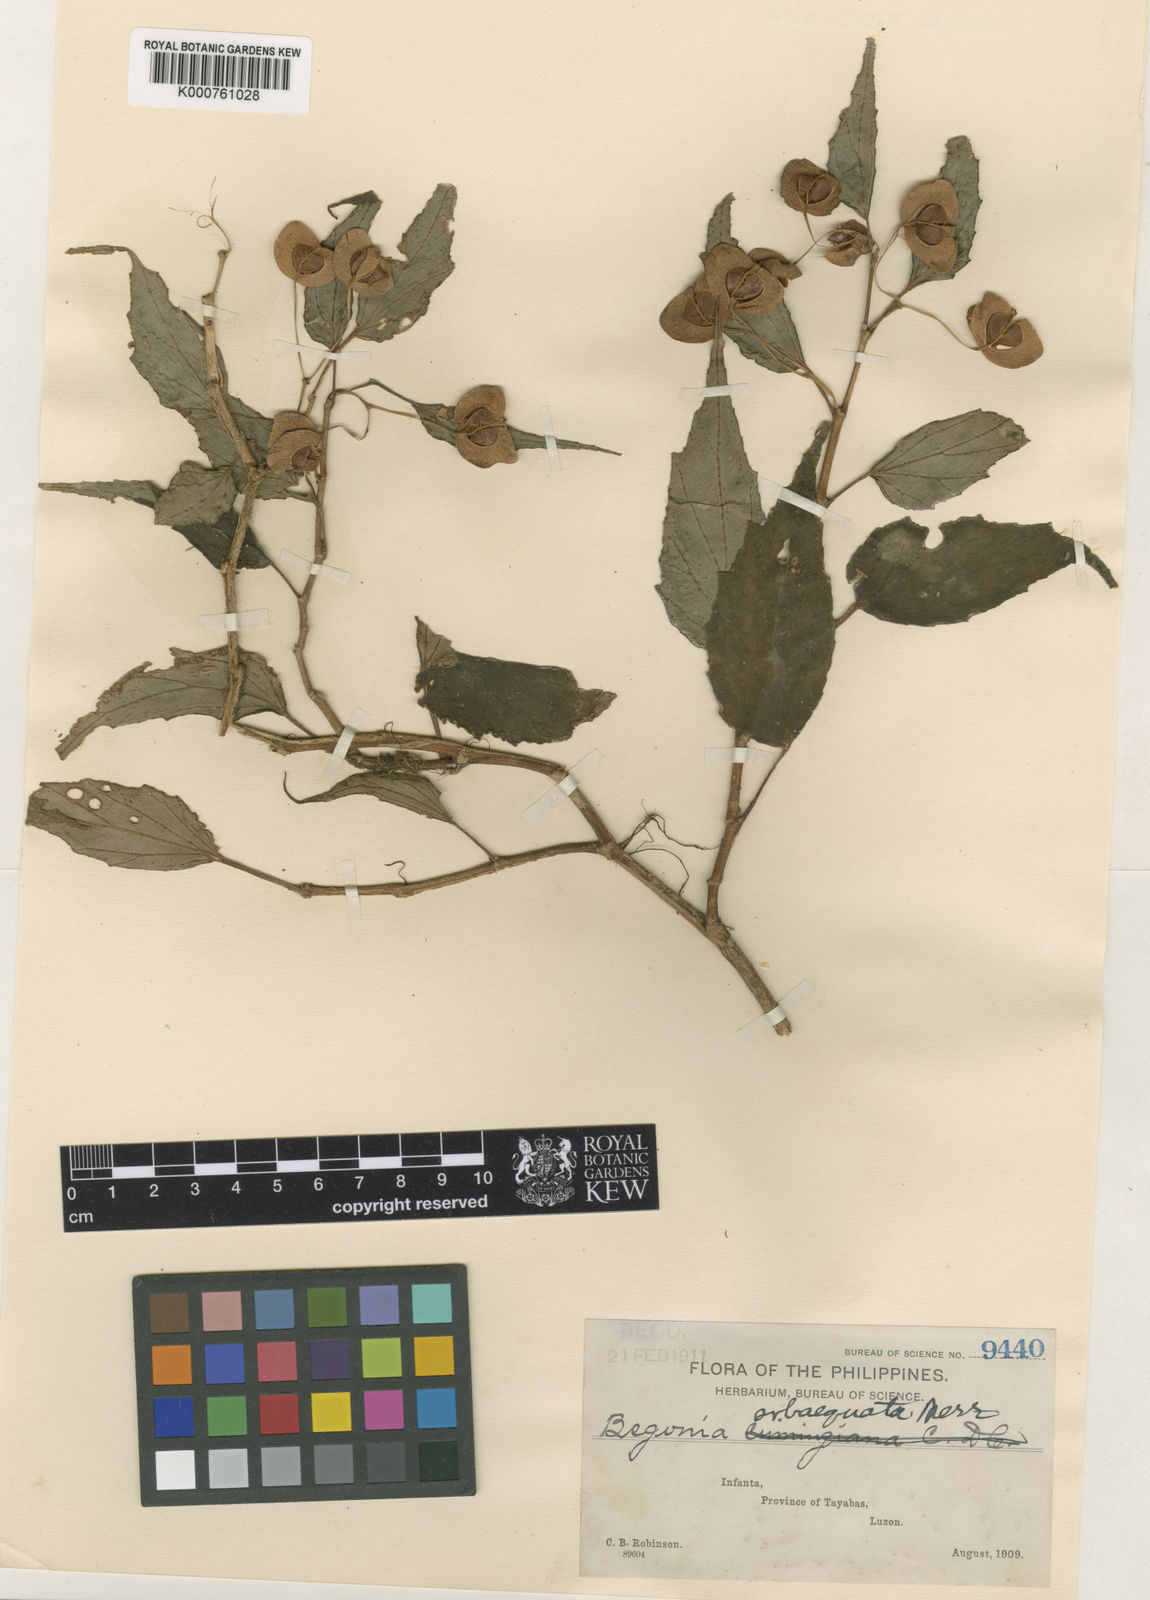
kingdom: Plantae
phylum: Tracheophyta
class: Magnoliopsida
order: Cucurbitales
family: Begoniaceae
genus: Begonia
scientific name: Begonia
